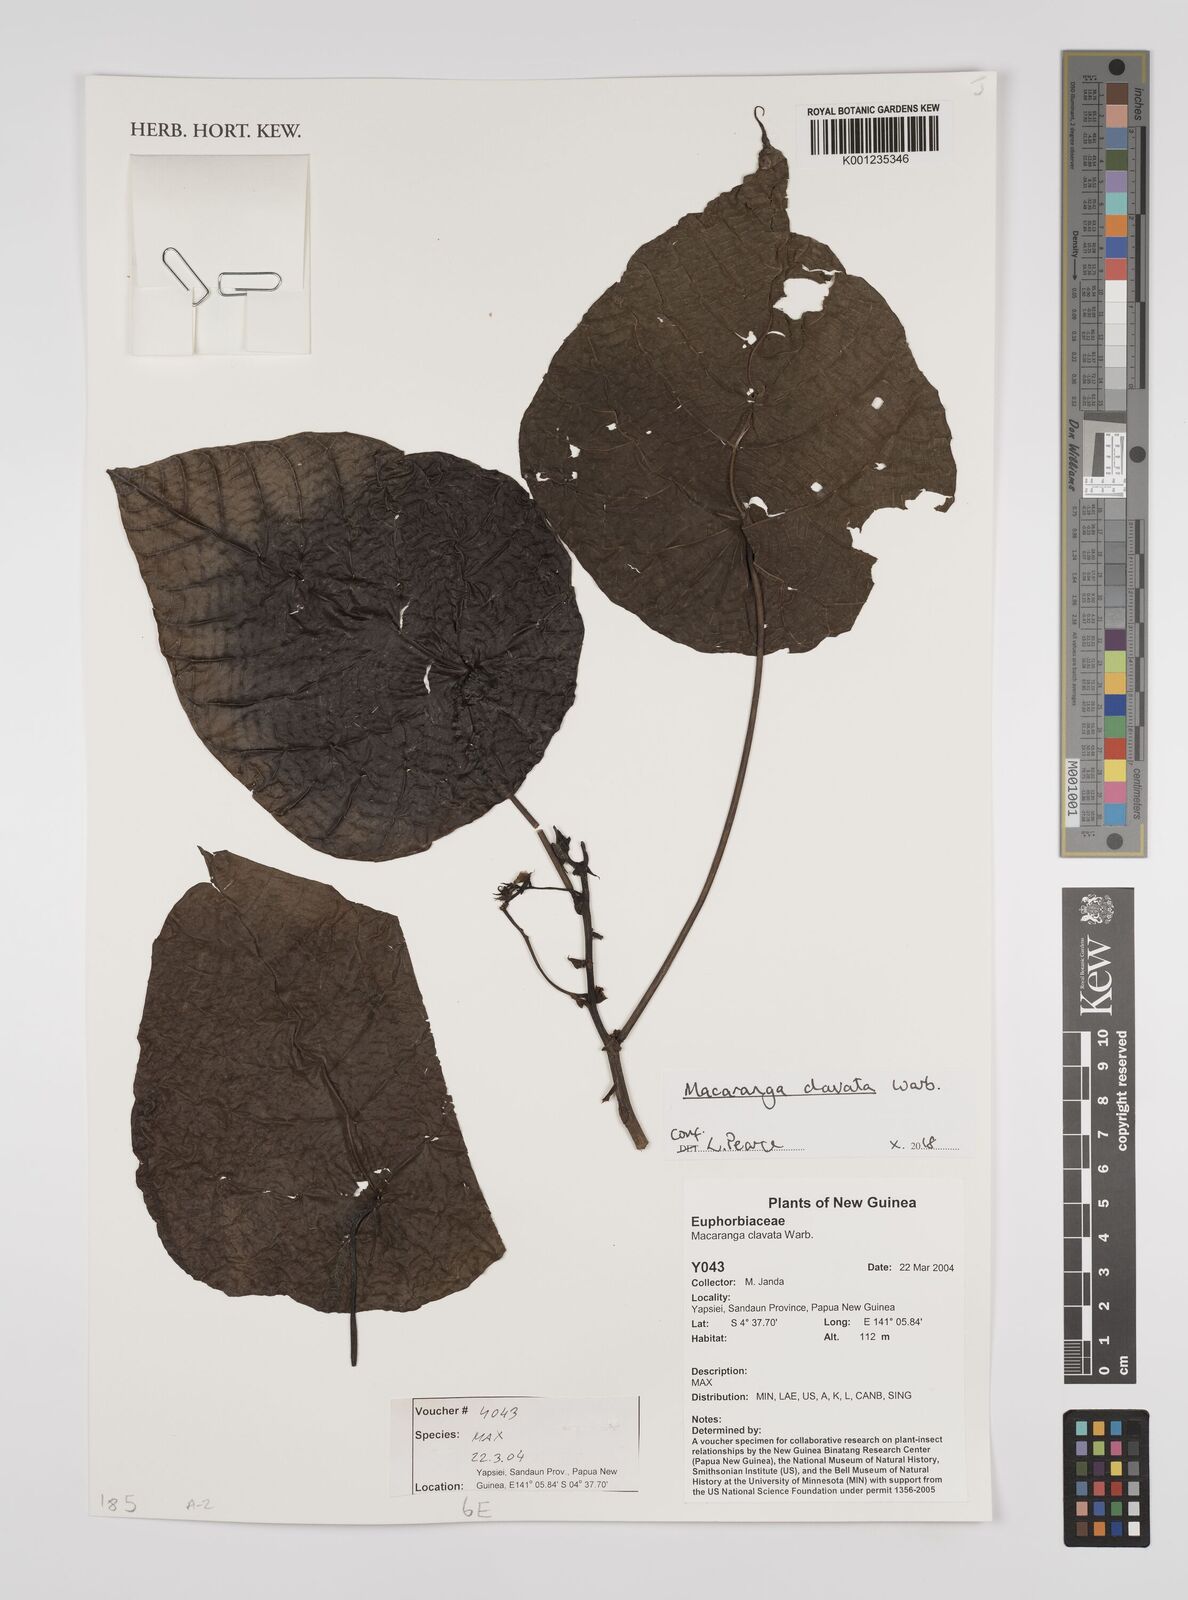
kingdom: Plantae
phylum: Tracheophyta
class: Magnoliopsida
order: Malpighiales
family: Euphorbiaceae
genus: Macaranga
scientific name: Macaranga clavata
